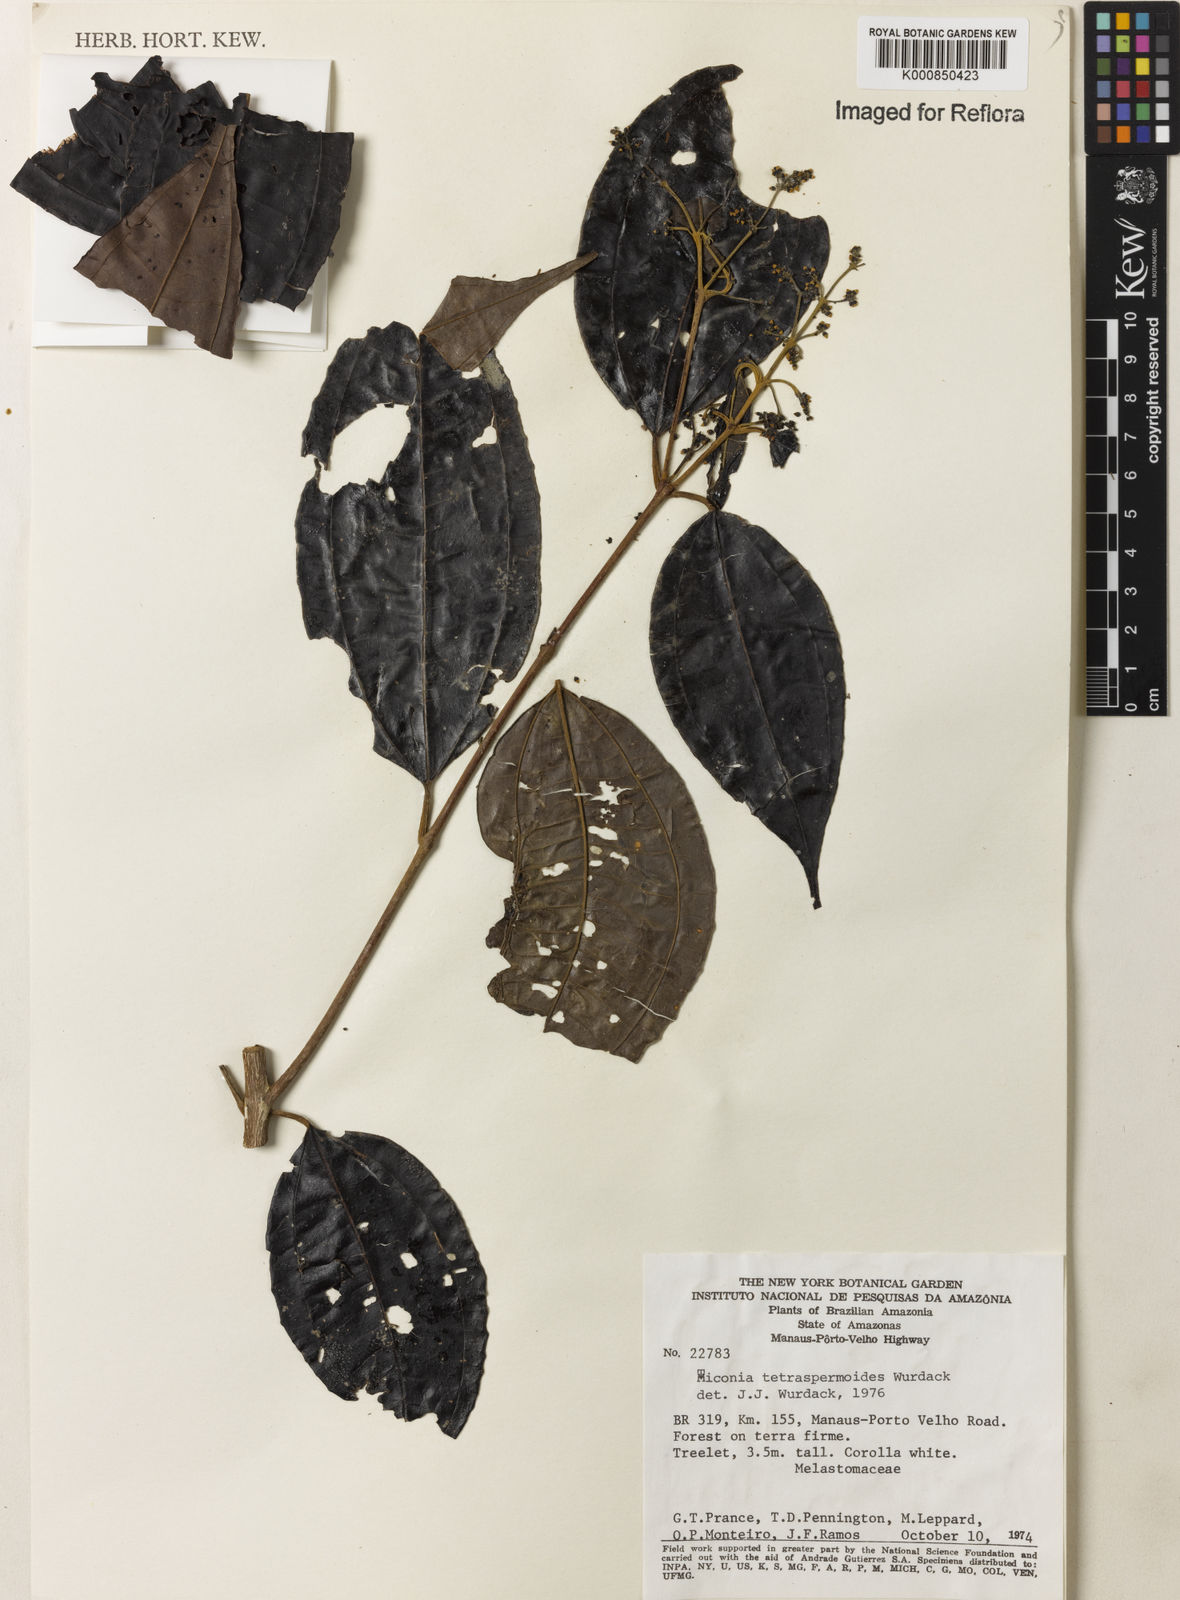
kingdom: Plantae
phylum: Tracheophyta
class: Magnoliopsida
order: Myrtales
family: Melastomataceae
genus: Miconia
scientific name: Miconia tetrasperma
